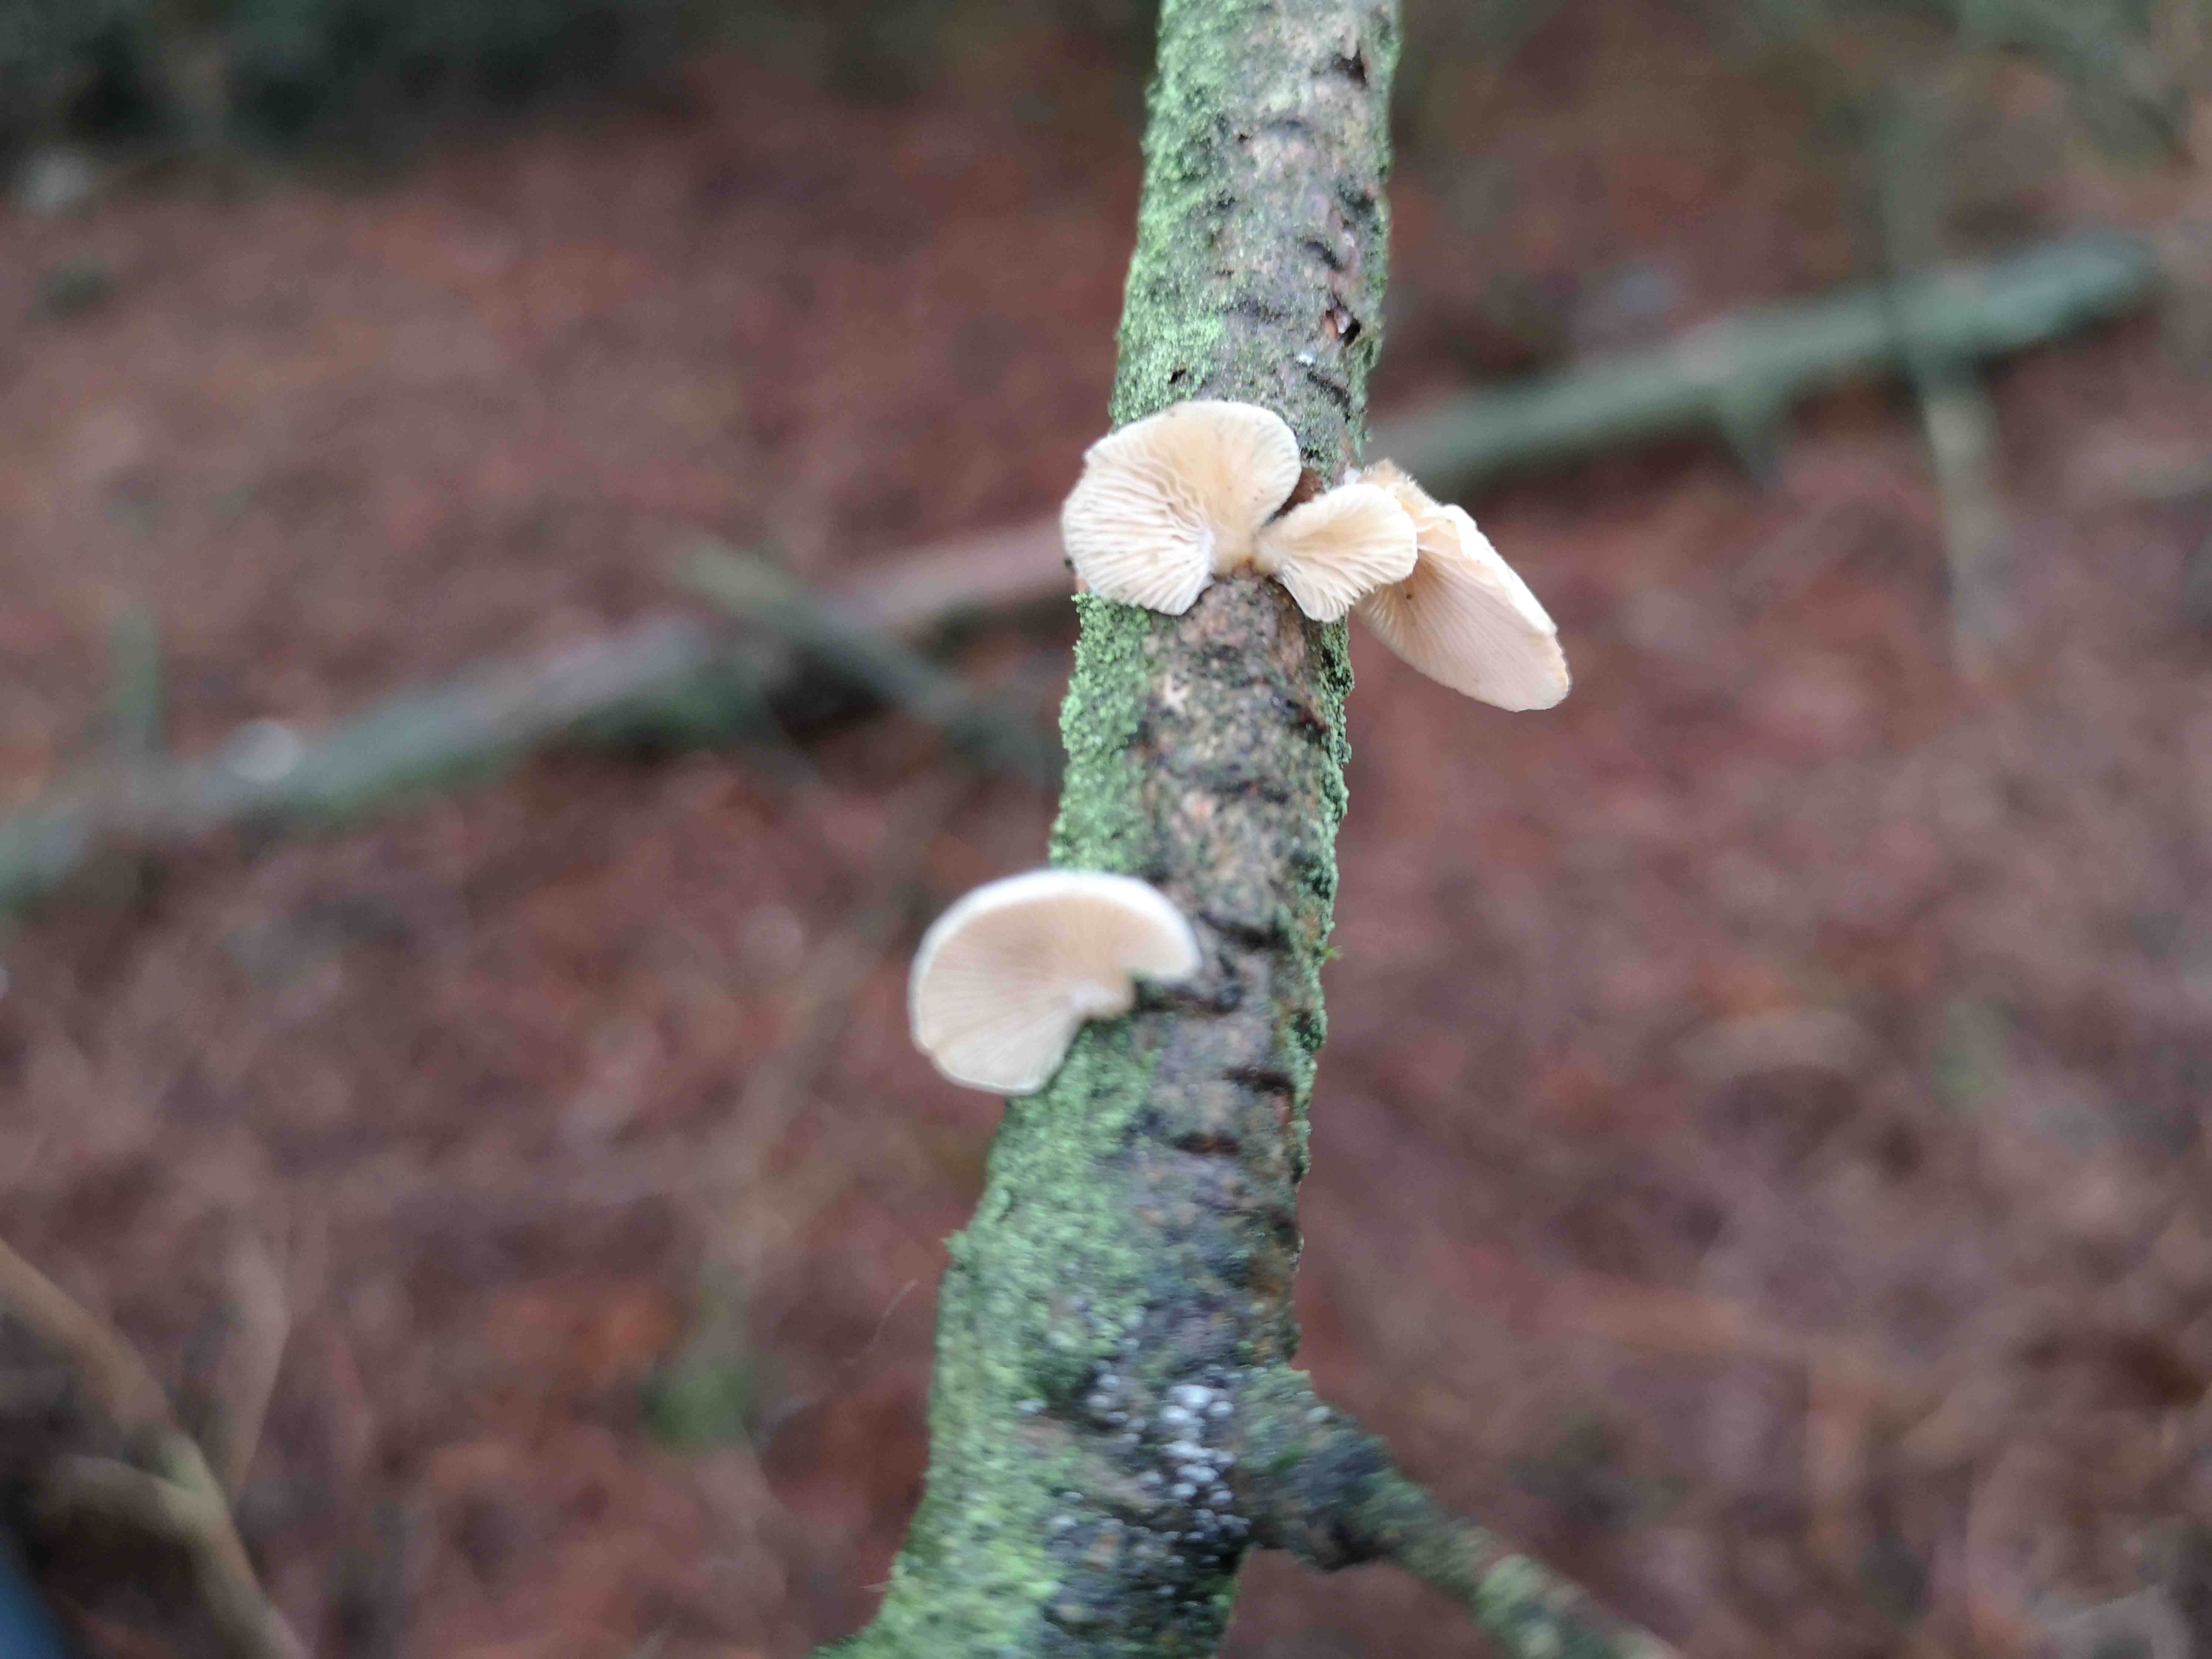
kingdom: Fungi
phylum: Basidiomycota
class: Agaricomycetes
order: Agaricales
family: Mycenaceae
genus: Panellus
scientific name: Panellus mitis
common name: mild epaulethat
